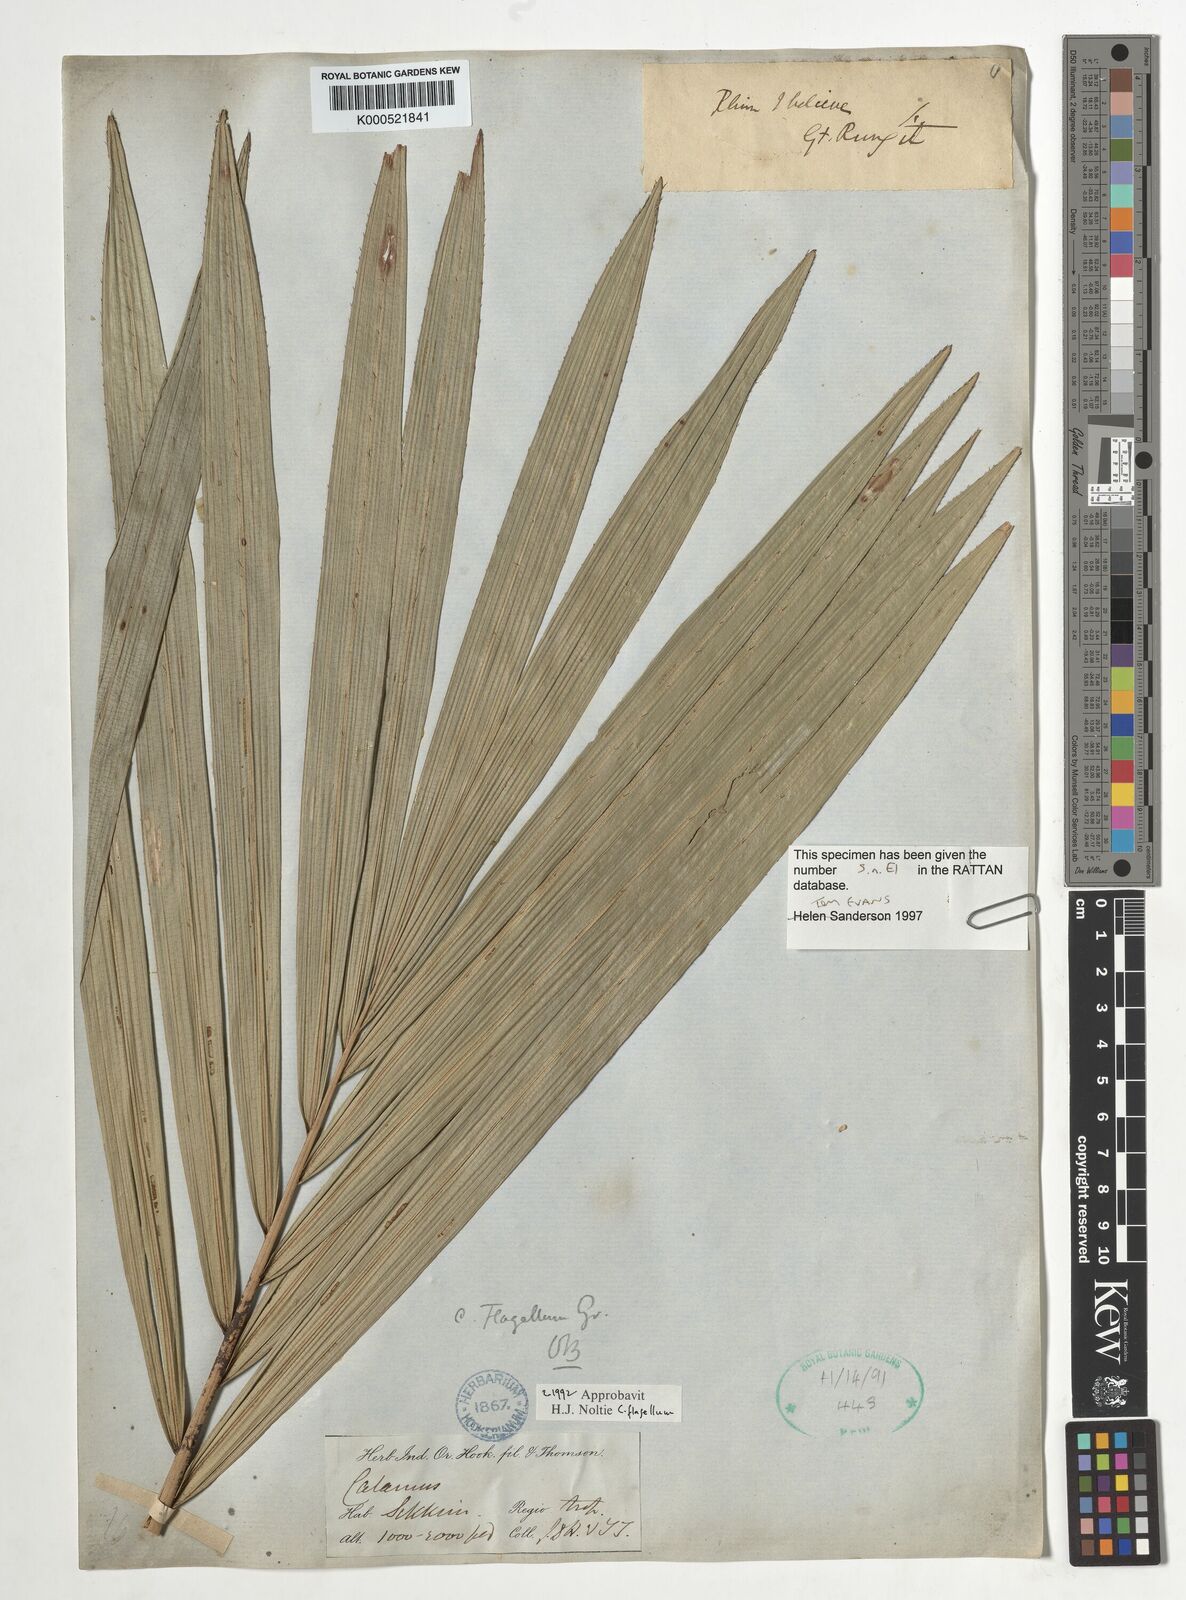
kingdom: Plantae
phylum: Tracheophyta
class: Liliopsida
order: Arecales
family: Arecaceae
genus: Calamus
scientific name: Calamus
